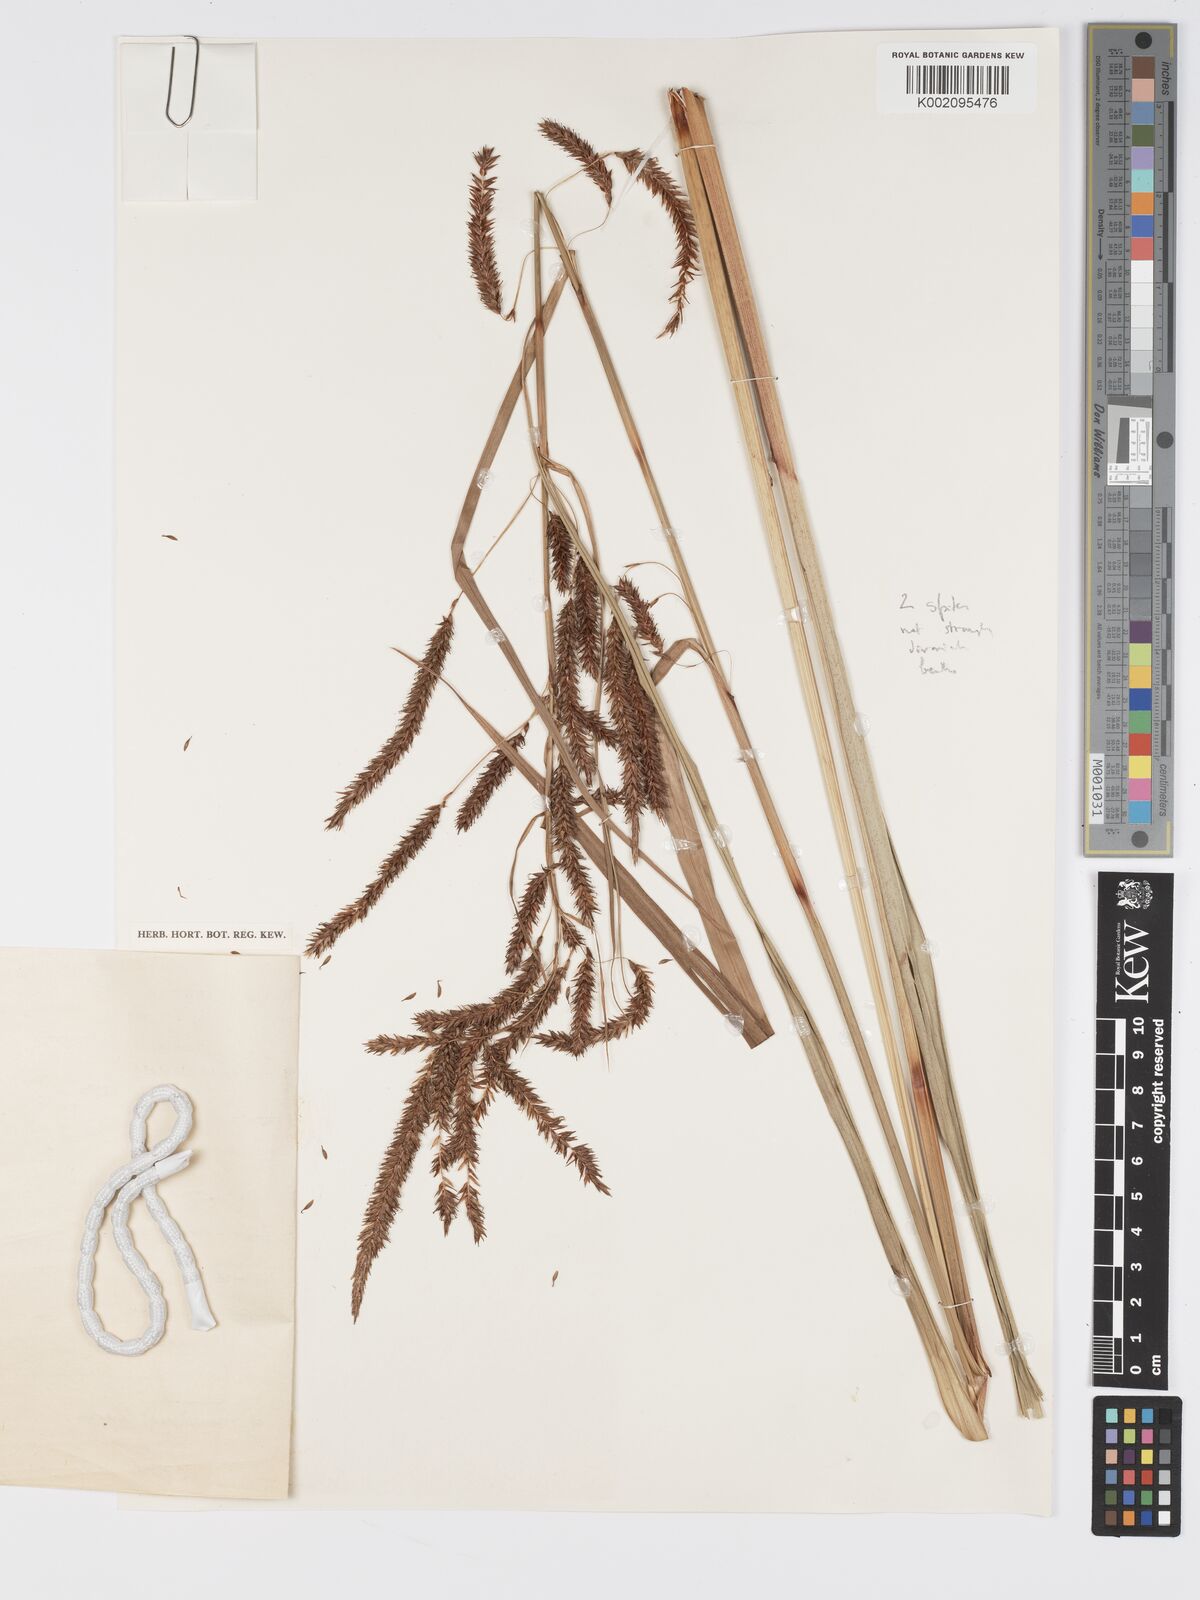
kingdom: Plantae
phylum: Tracheophyta
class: Liliopsida
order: Poales
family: Cyperaceae
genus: Carex
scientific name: Carex mildbraediana
